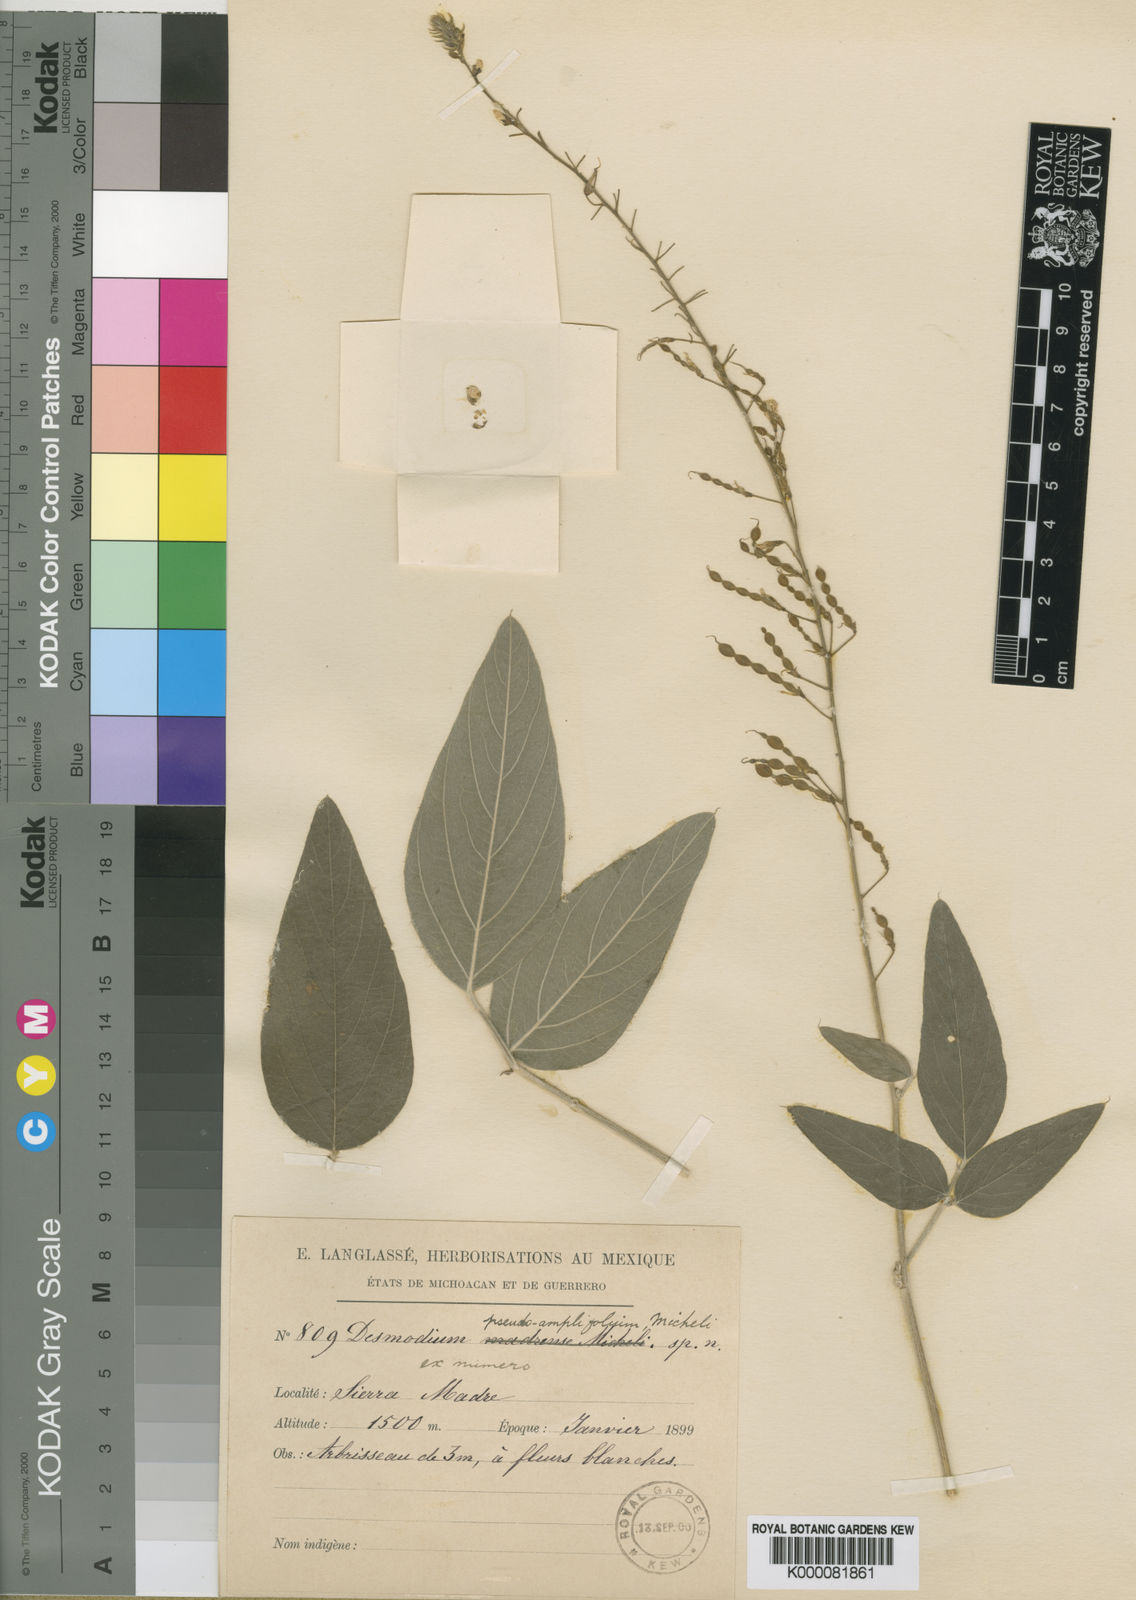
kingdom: Plantae
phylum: Tracheophyta
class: Magnoliopsida
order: Fabales
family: Fabaceae
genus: Desmodium
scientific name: Desmodium pseudoamplifolium
